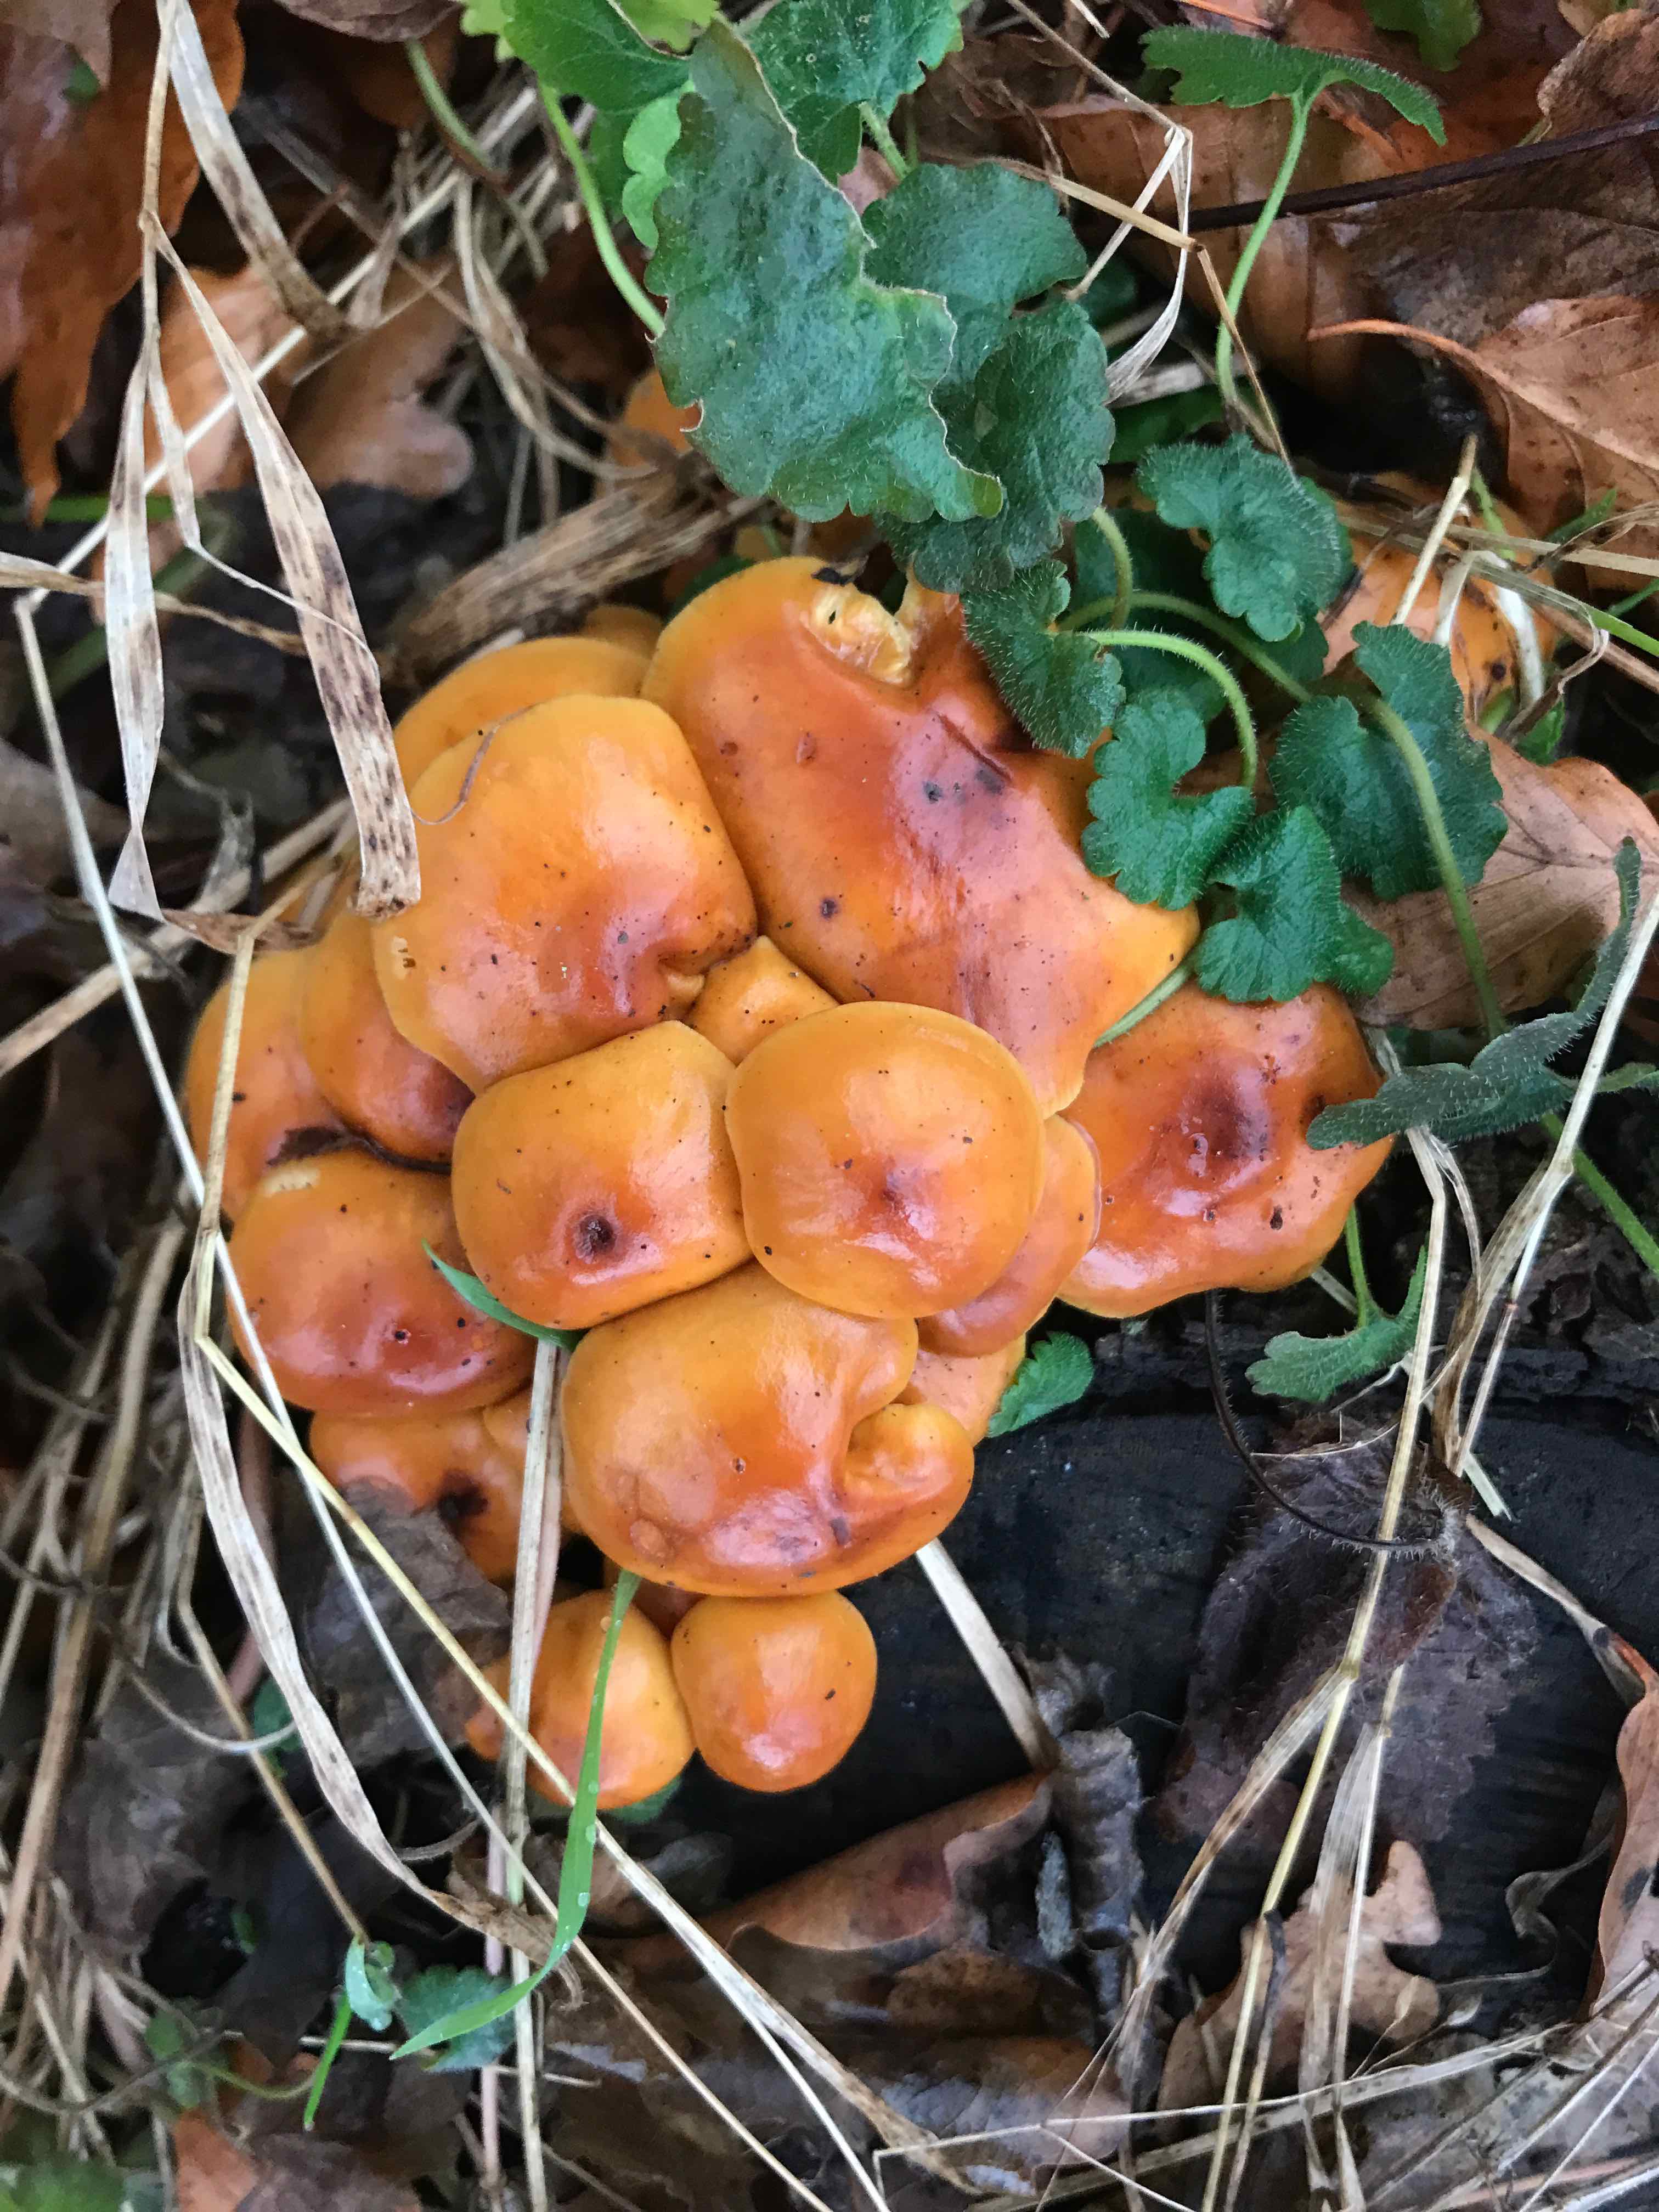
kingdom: Fungi
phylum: Basidiomycota
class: Agaricomycetes
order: Agaricales
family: Physalacriaceae
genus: Flammulina
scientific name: Flammulina velutipes
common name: gul fløjlsfod
